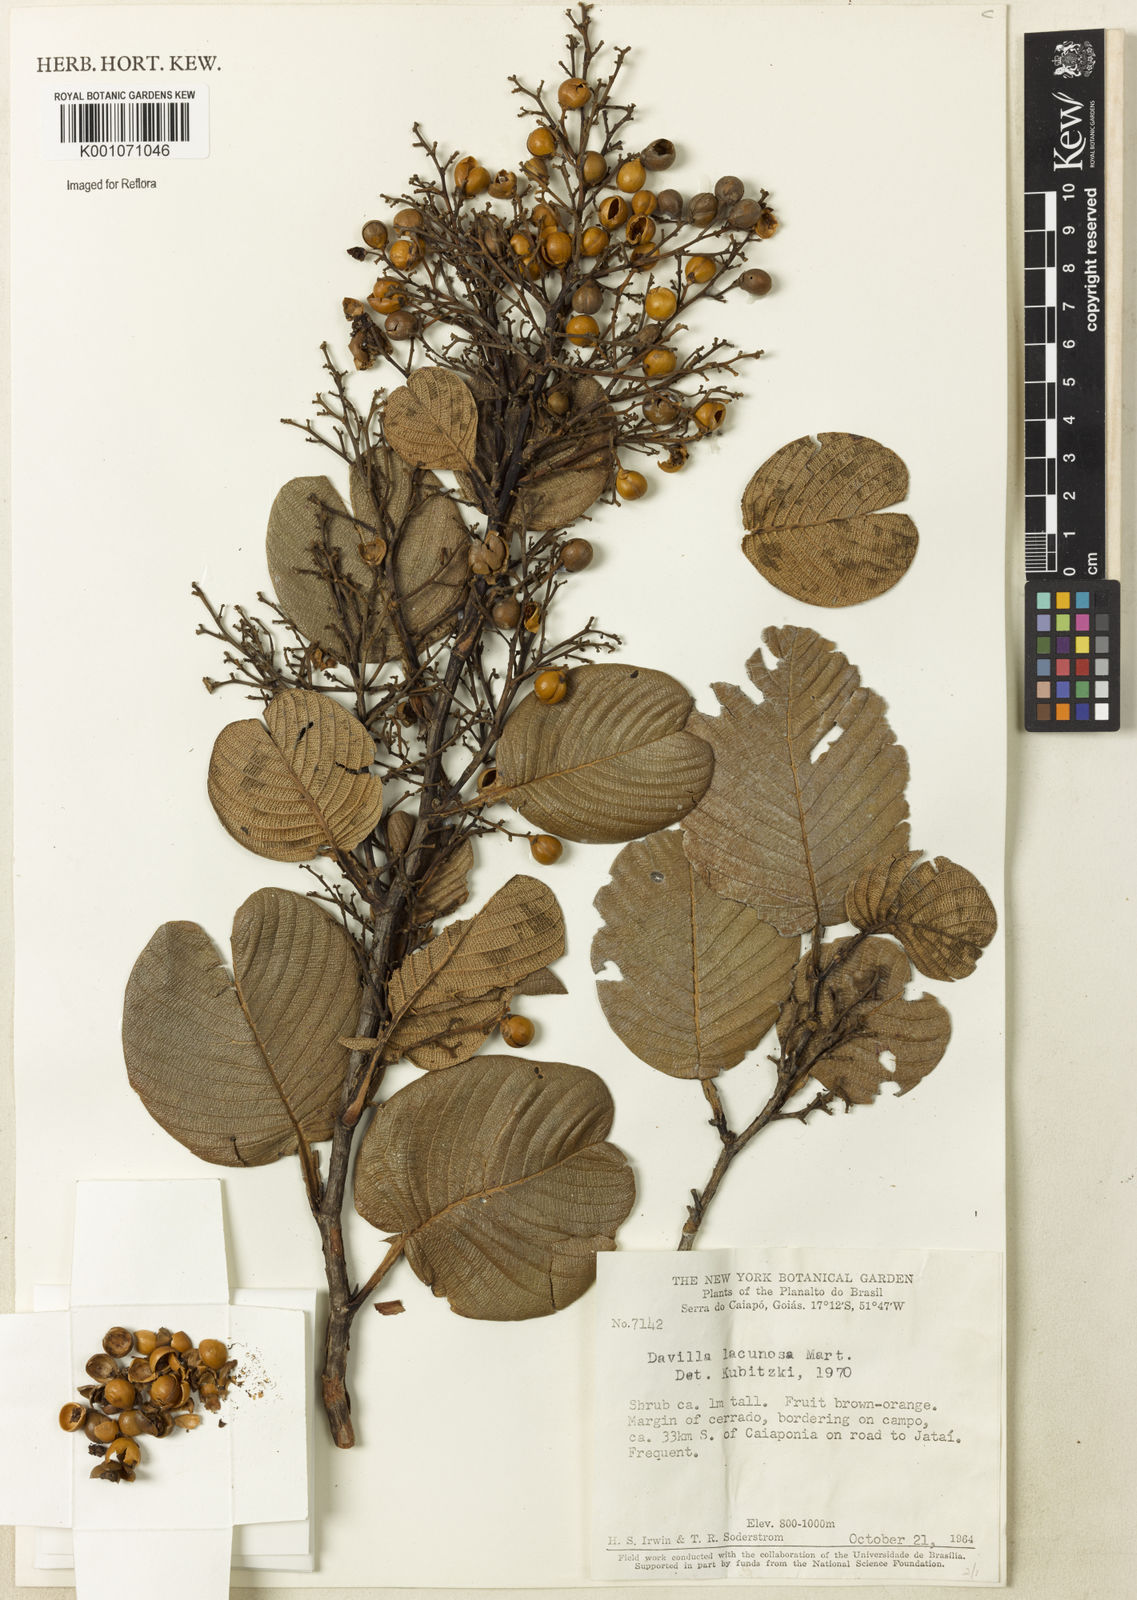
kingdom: Plantae
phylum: Tracheophyta
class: Magnoliopsida
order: Dilleniales
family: Dilleniaceae
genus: Davilla
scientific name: Davilla lacunosa
